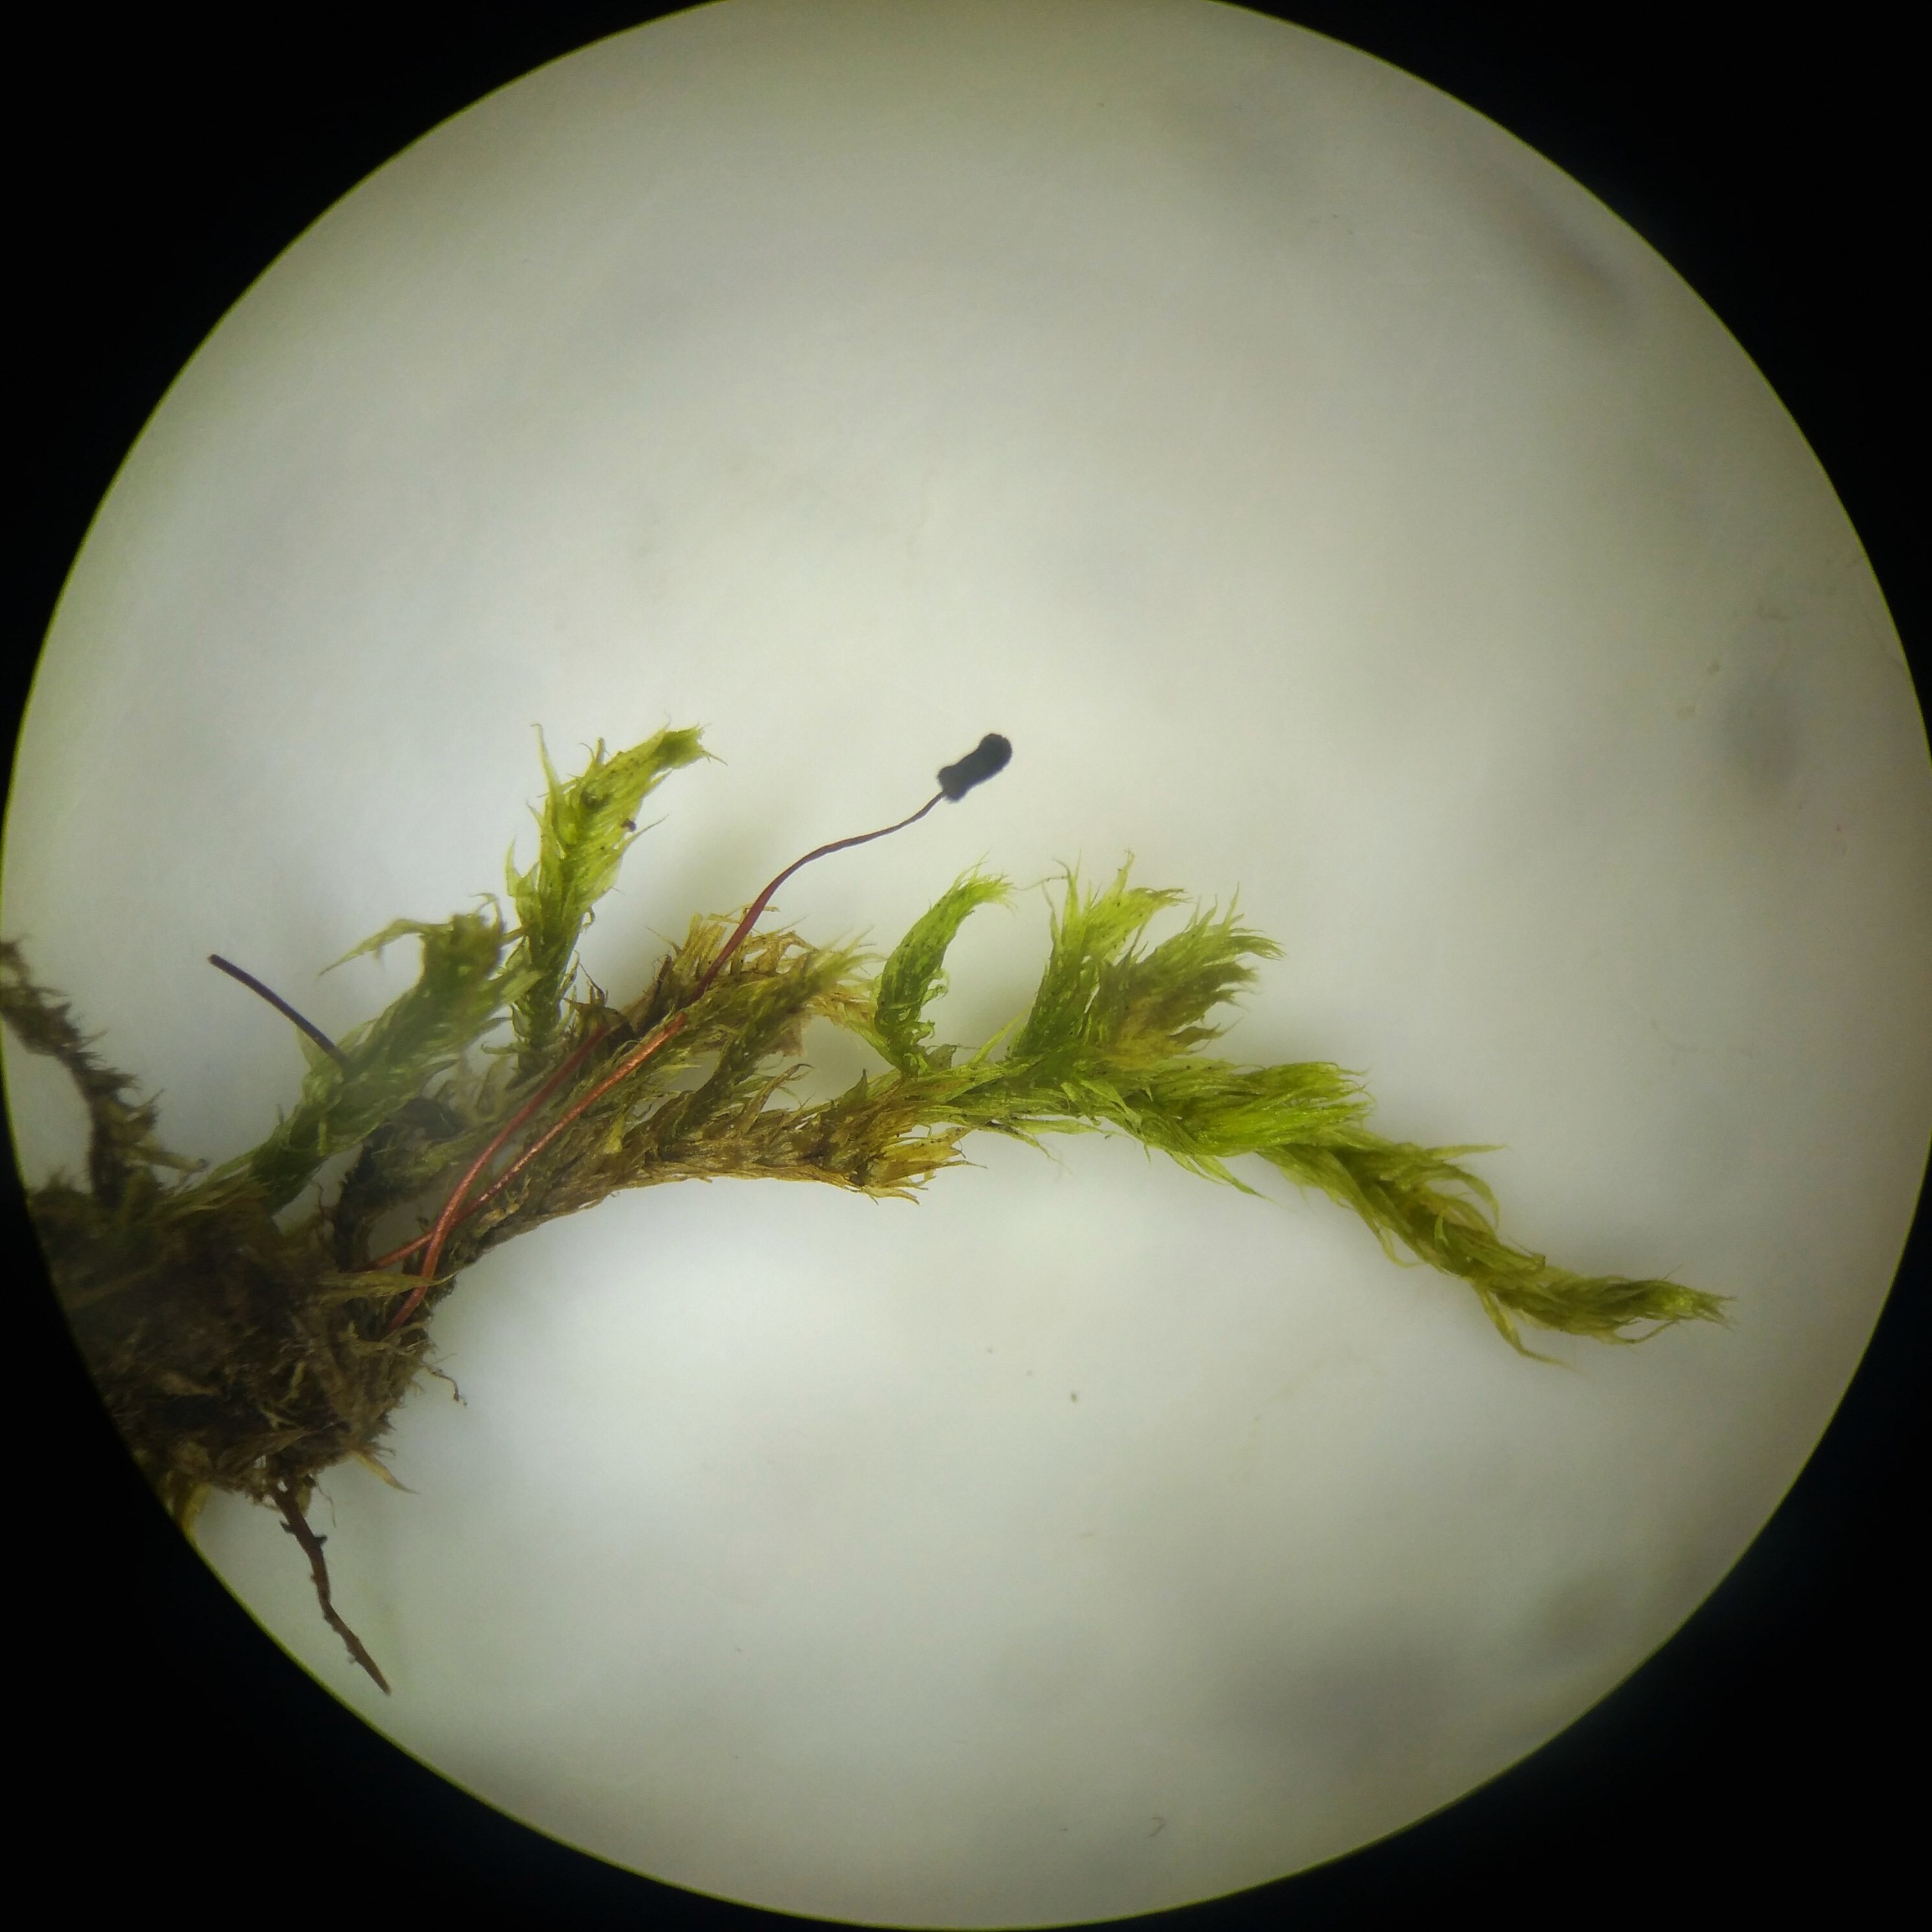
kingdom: Plantae
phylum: Bryophyta
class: Bryopsida
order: Hypnales
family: Brachytheciaceae
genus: Brachythecium
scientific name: Brachythecium salebrosum
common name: Skov-kortkapsel
